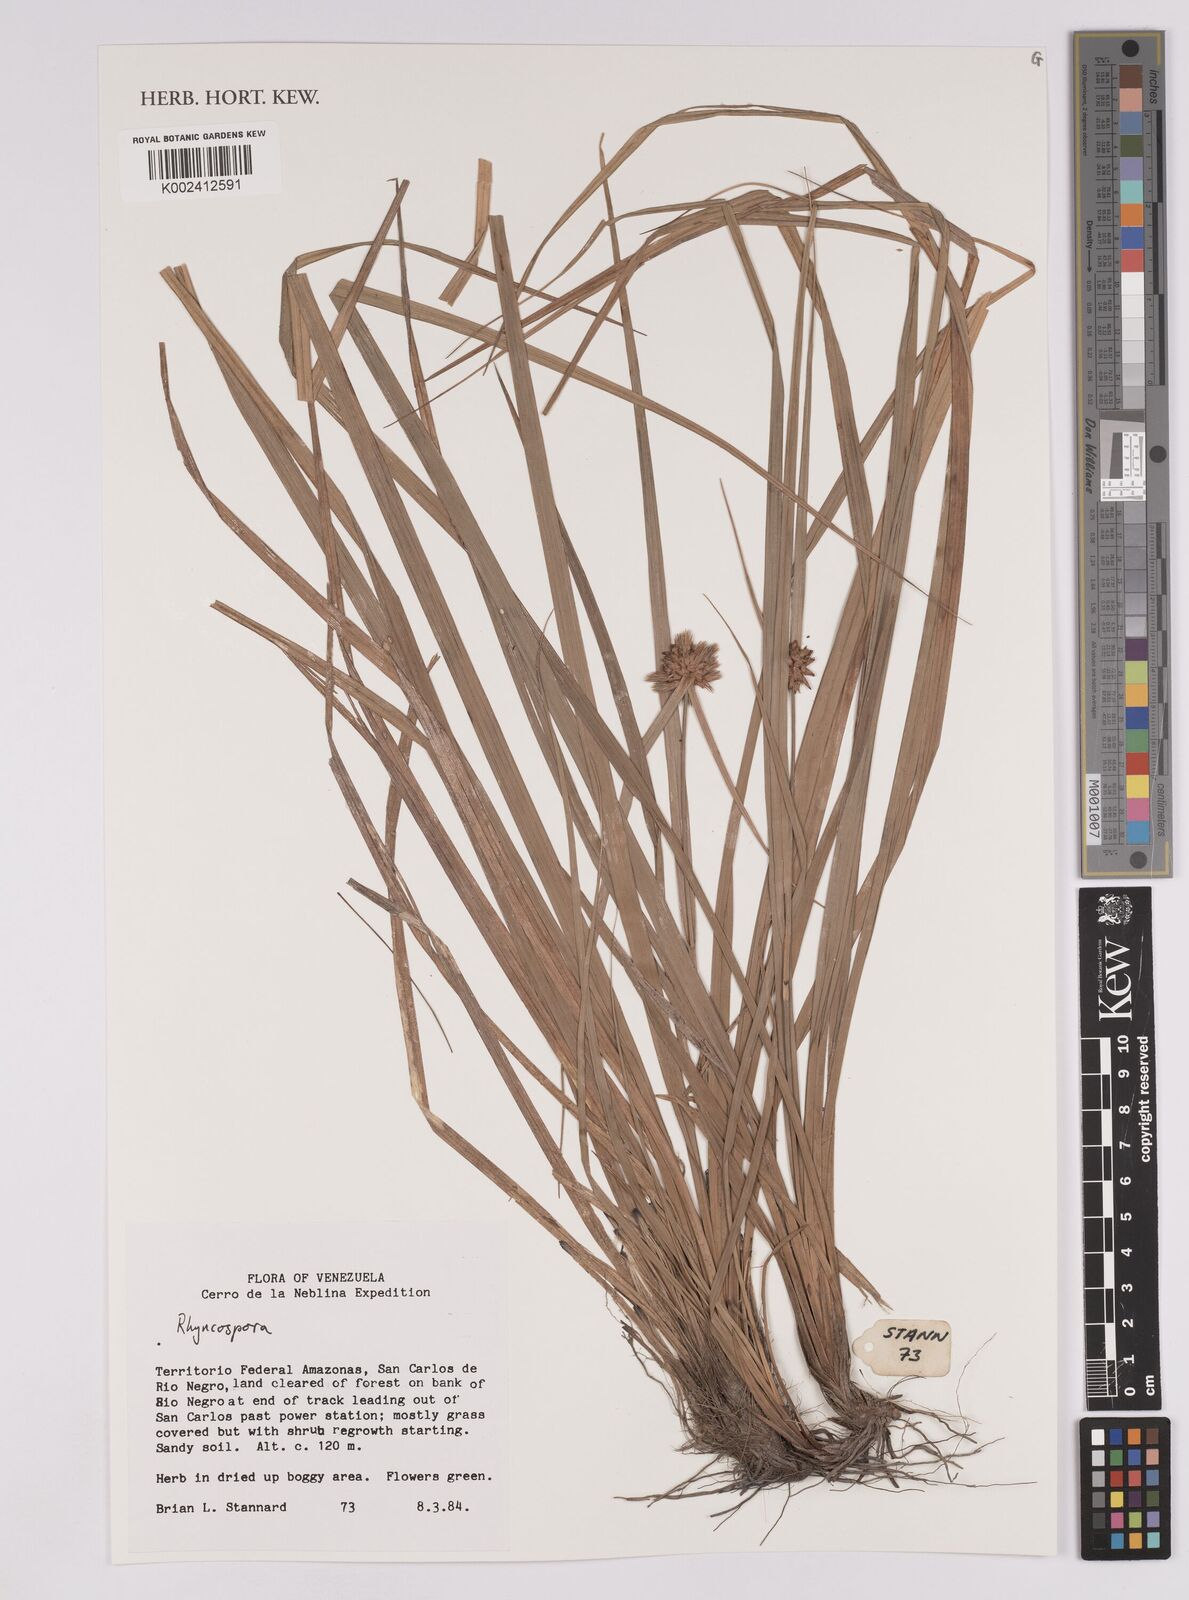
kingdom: Plantae
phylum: Tracheophyta
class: Liliopsida
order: Poales
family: Cyperaceae
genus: Rhynchospora
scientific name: Rhynchospora
